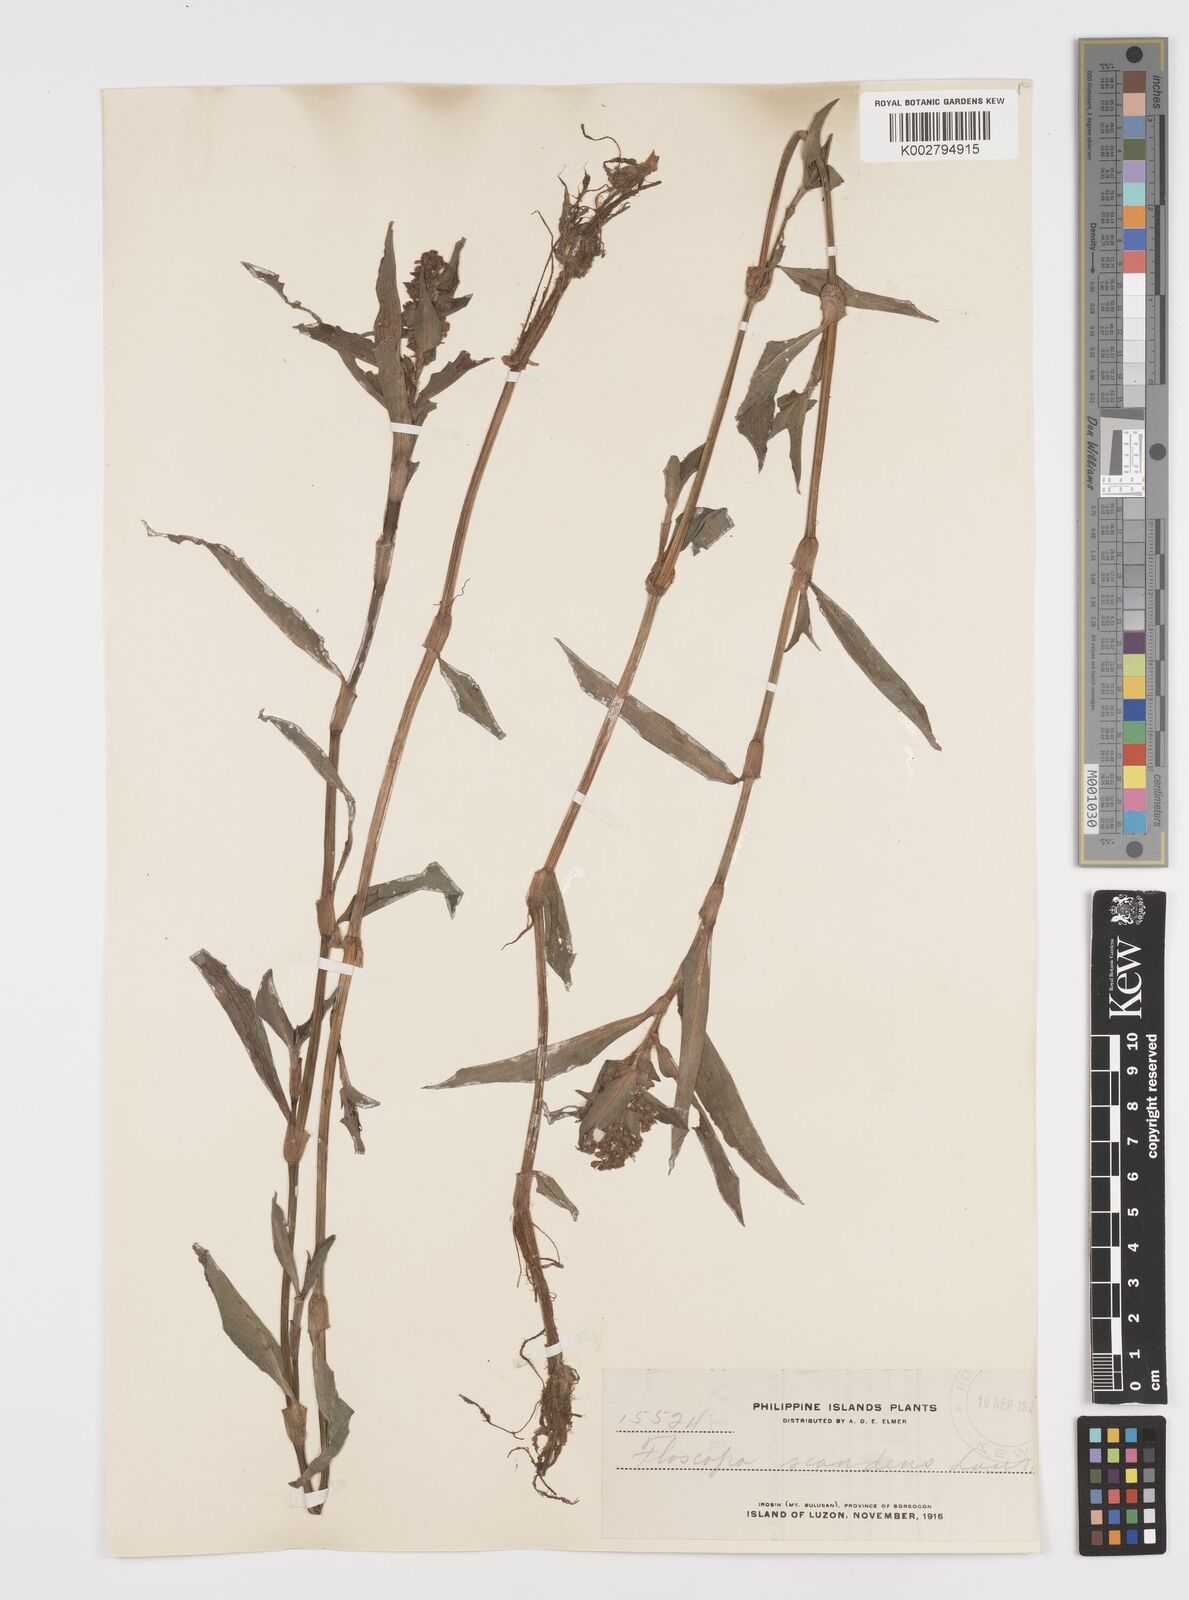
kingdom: Plantae
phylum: Tracheophyta
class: Liliopsida
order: Commelinales
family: Commelinaceae
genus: Floscopa
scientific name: Floscopa scandens
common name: Climbing flower cup
